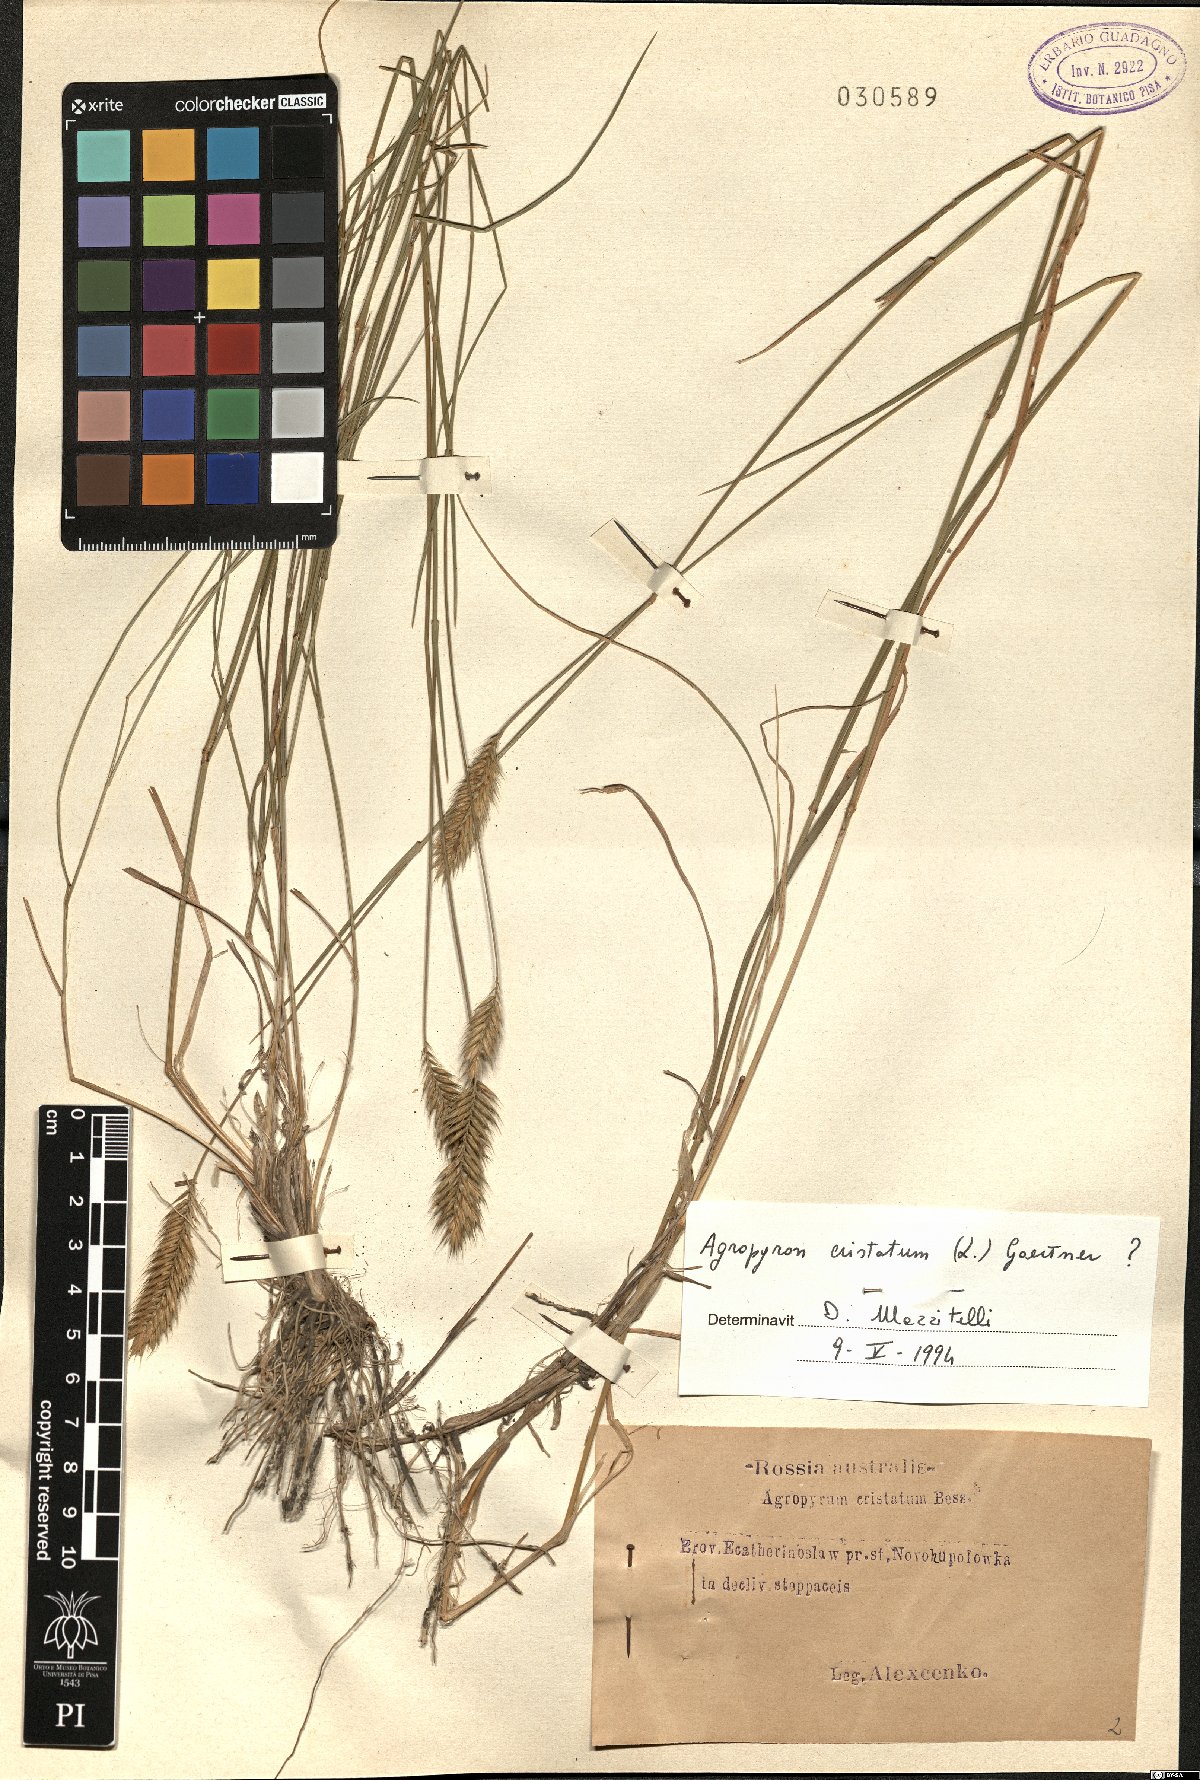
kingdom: Plantae
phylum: Tracheophyta
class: Liliopsida
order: Poales
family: Poaceae
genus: Agropyron
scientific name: Agropyron cristatum
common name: Crested wheatgrass
